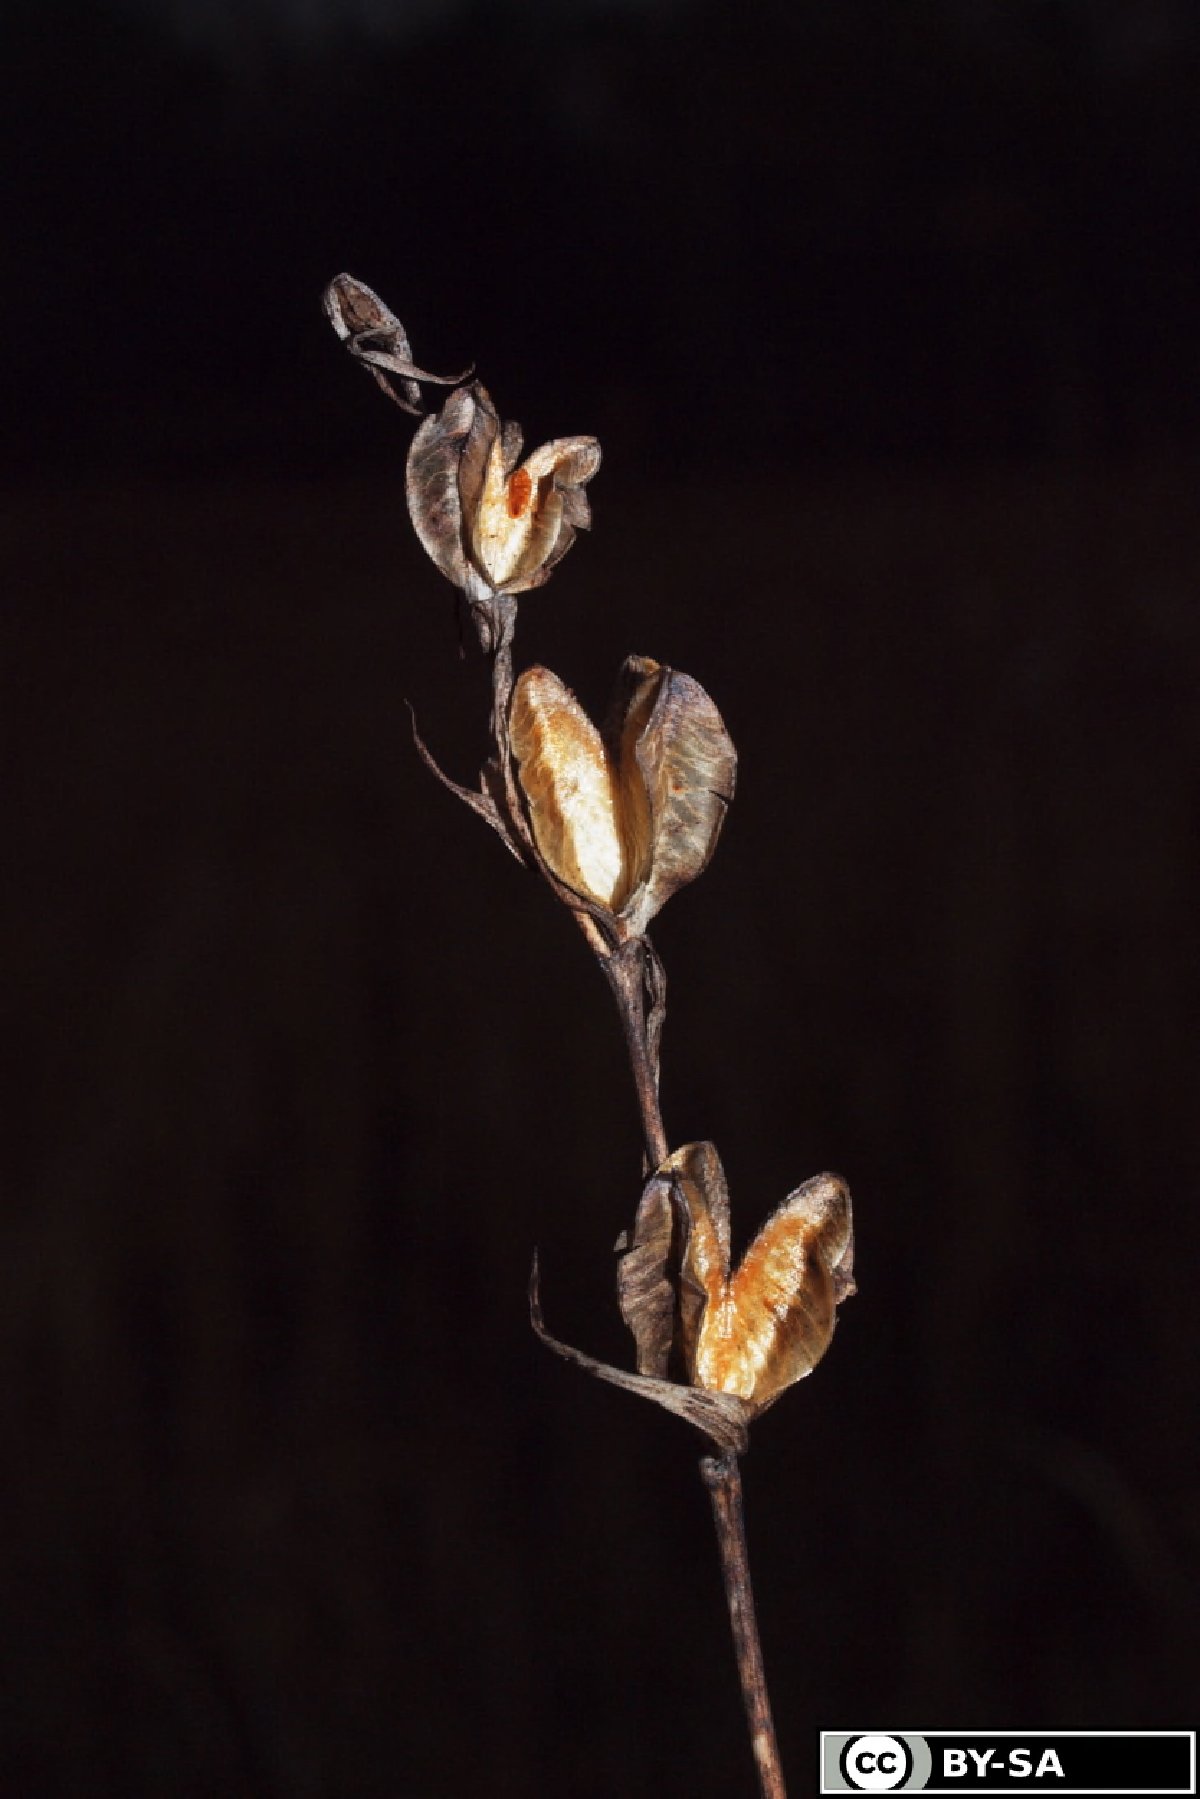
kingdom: Plantae
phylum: Tracheophyta
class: Liliopsida
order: Asparagales
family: Iridaceae
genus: Gladiolus
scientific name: Gladiolus palustris
